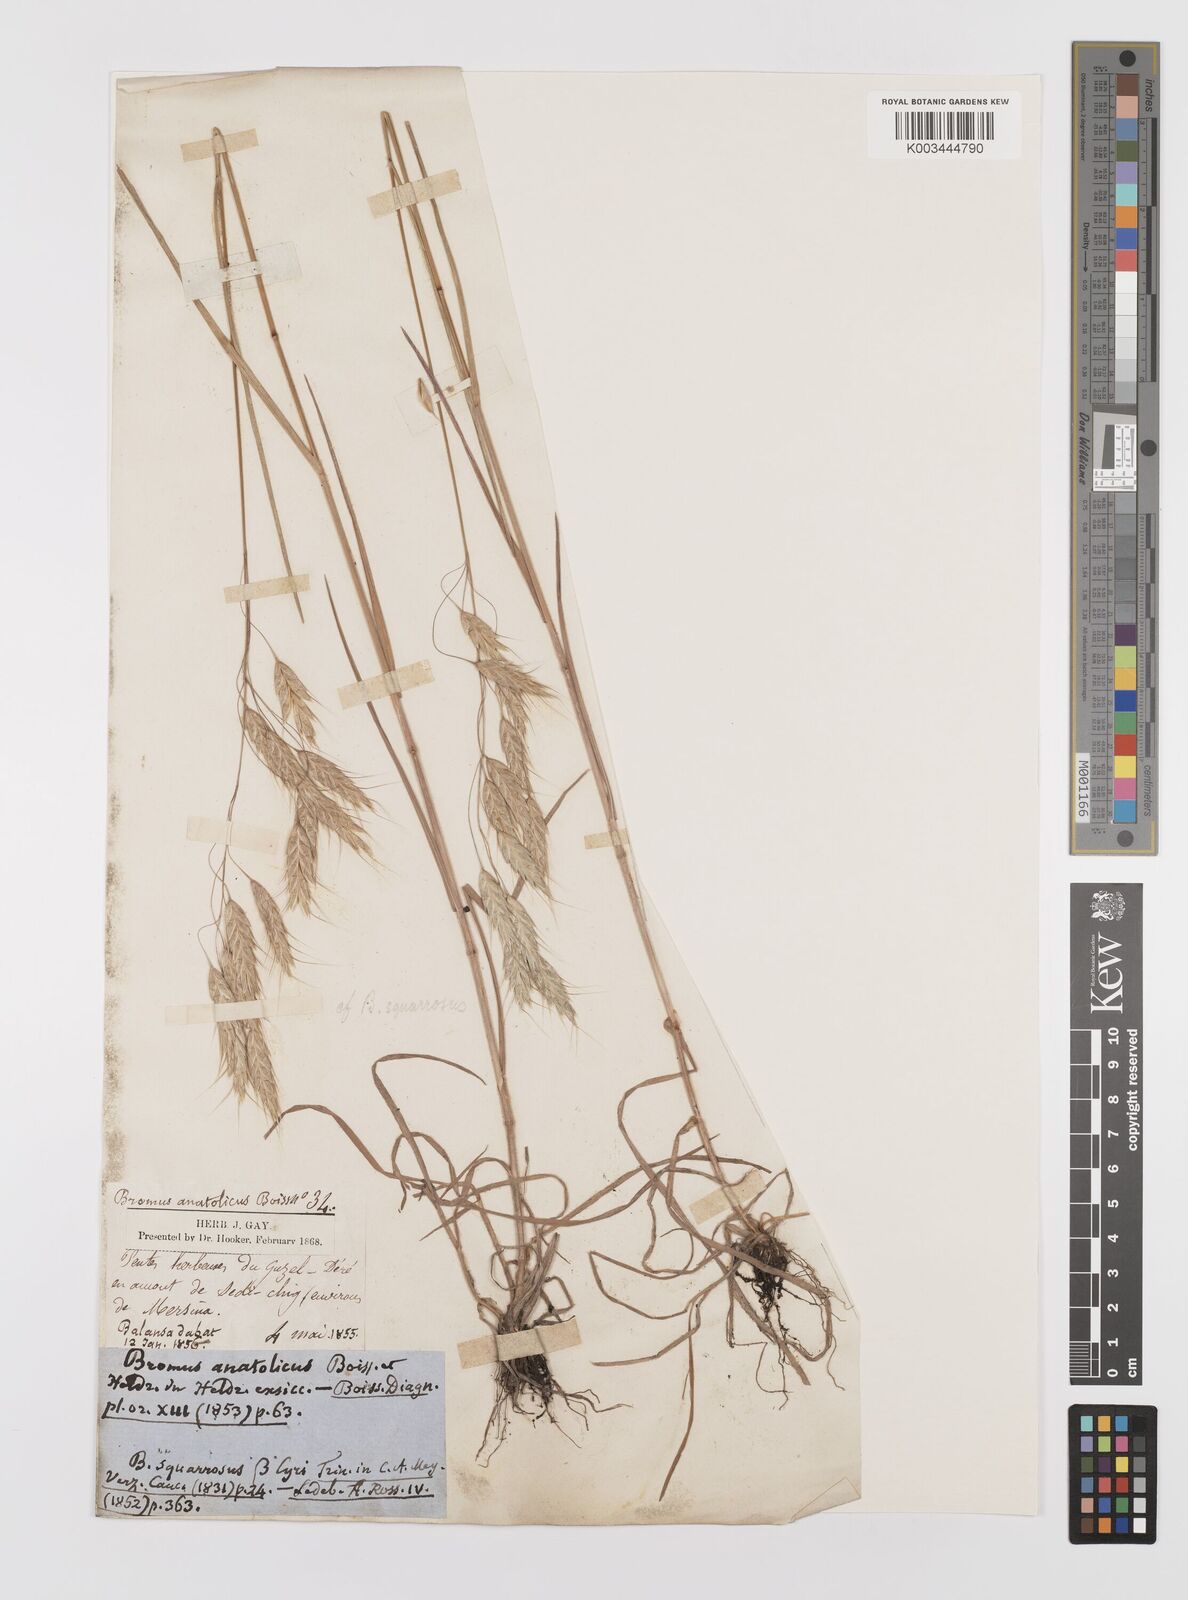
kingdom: Plantae
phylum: Tracheophyta
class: Liliopsida
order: Poales
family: Poaceae
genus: Bromus
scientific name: Bromus squarrosus
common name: Corn brome
